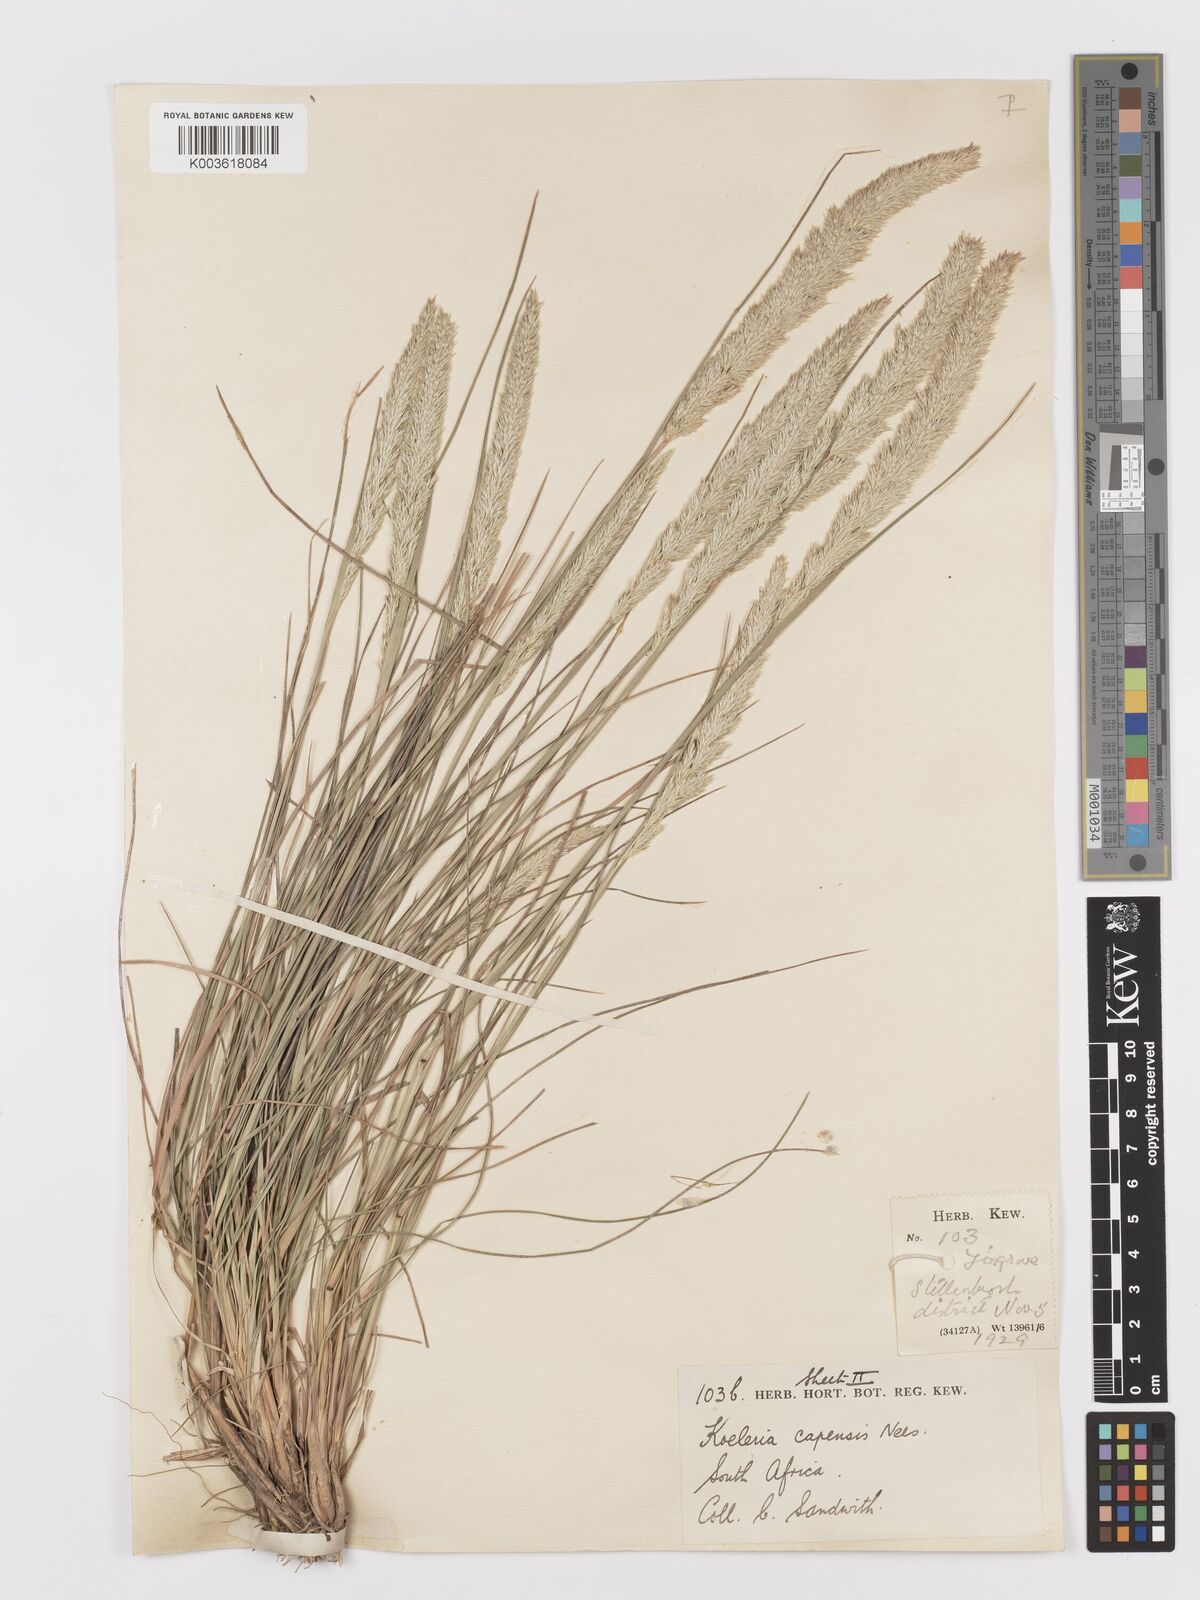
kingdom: Plantae
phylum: Tracheophyta
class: Liliopsida
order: Poales
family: Poaceae
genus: Koeleria
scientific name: Koeleria capensis
